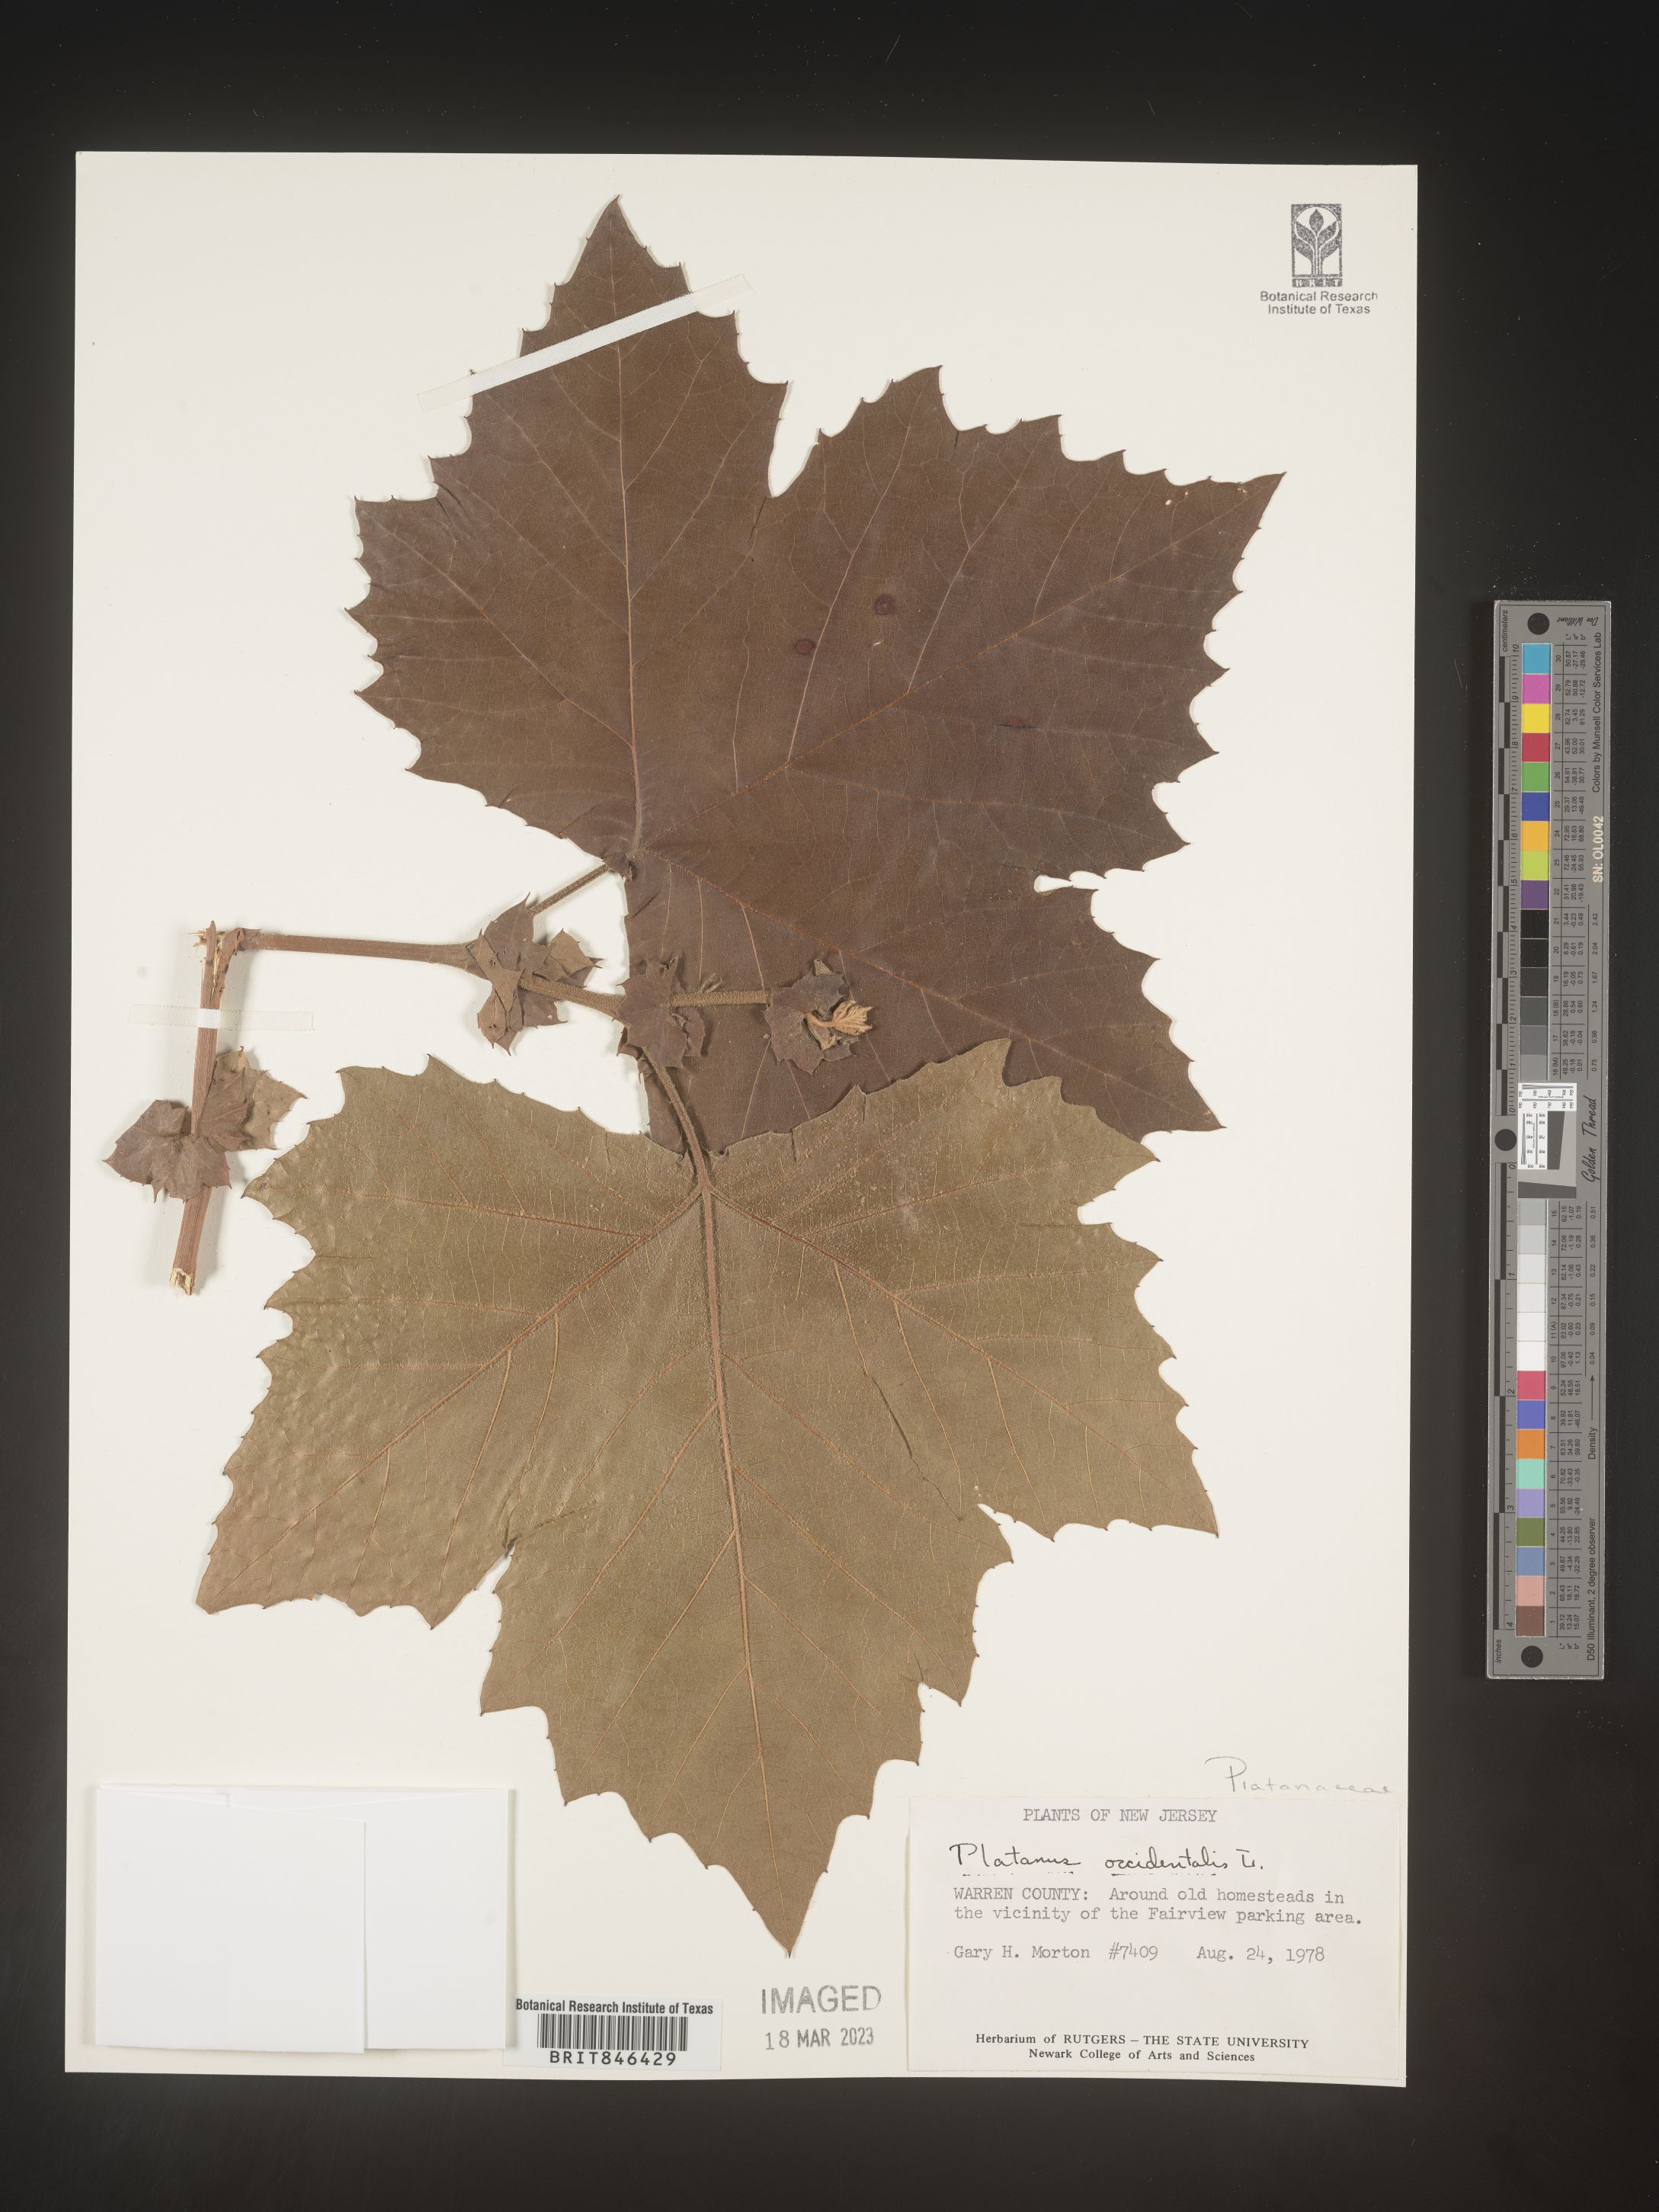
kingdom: Plantae
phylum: Tracheophyta
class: Magnoliopsida
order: Proteales
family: Platanaceae
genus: Platanus
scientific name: Platanus occidentalis
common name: American sycamore
